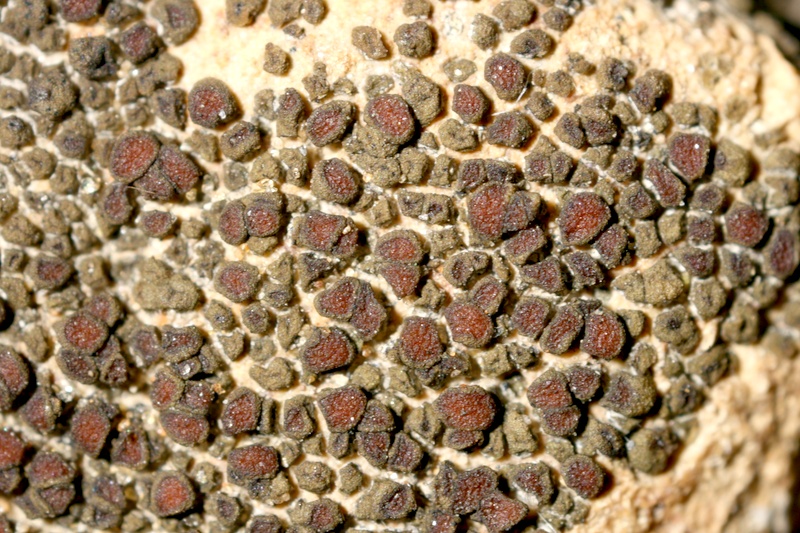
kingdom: Fungi
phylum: Ascomycota
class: Lichinomycetes
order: Lichinales
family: Peltulaceae
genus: Peltula
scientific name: Peltula obscurans
